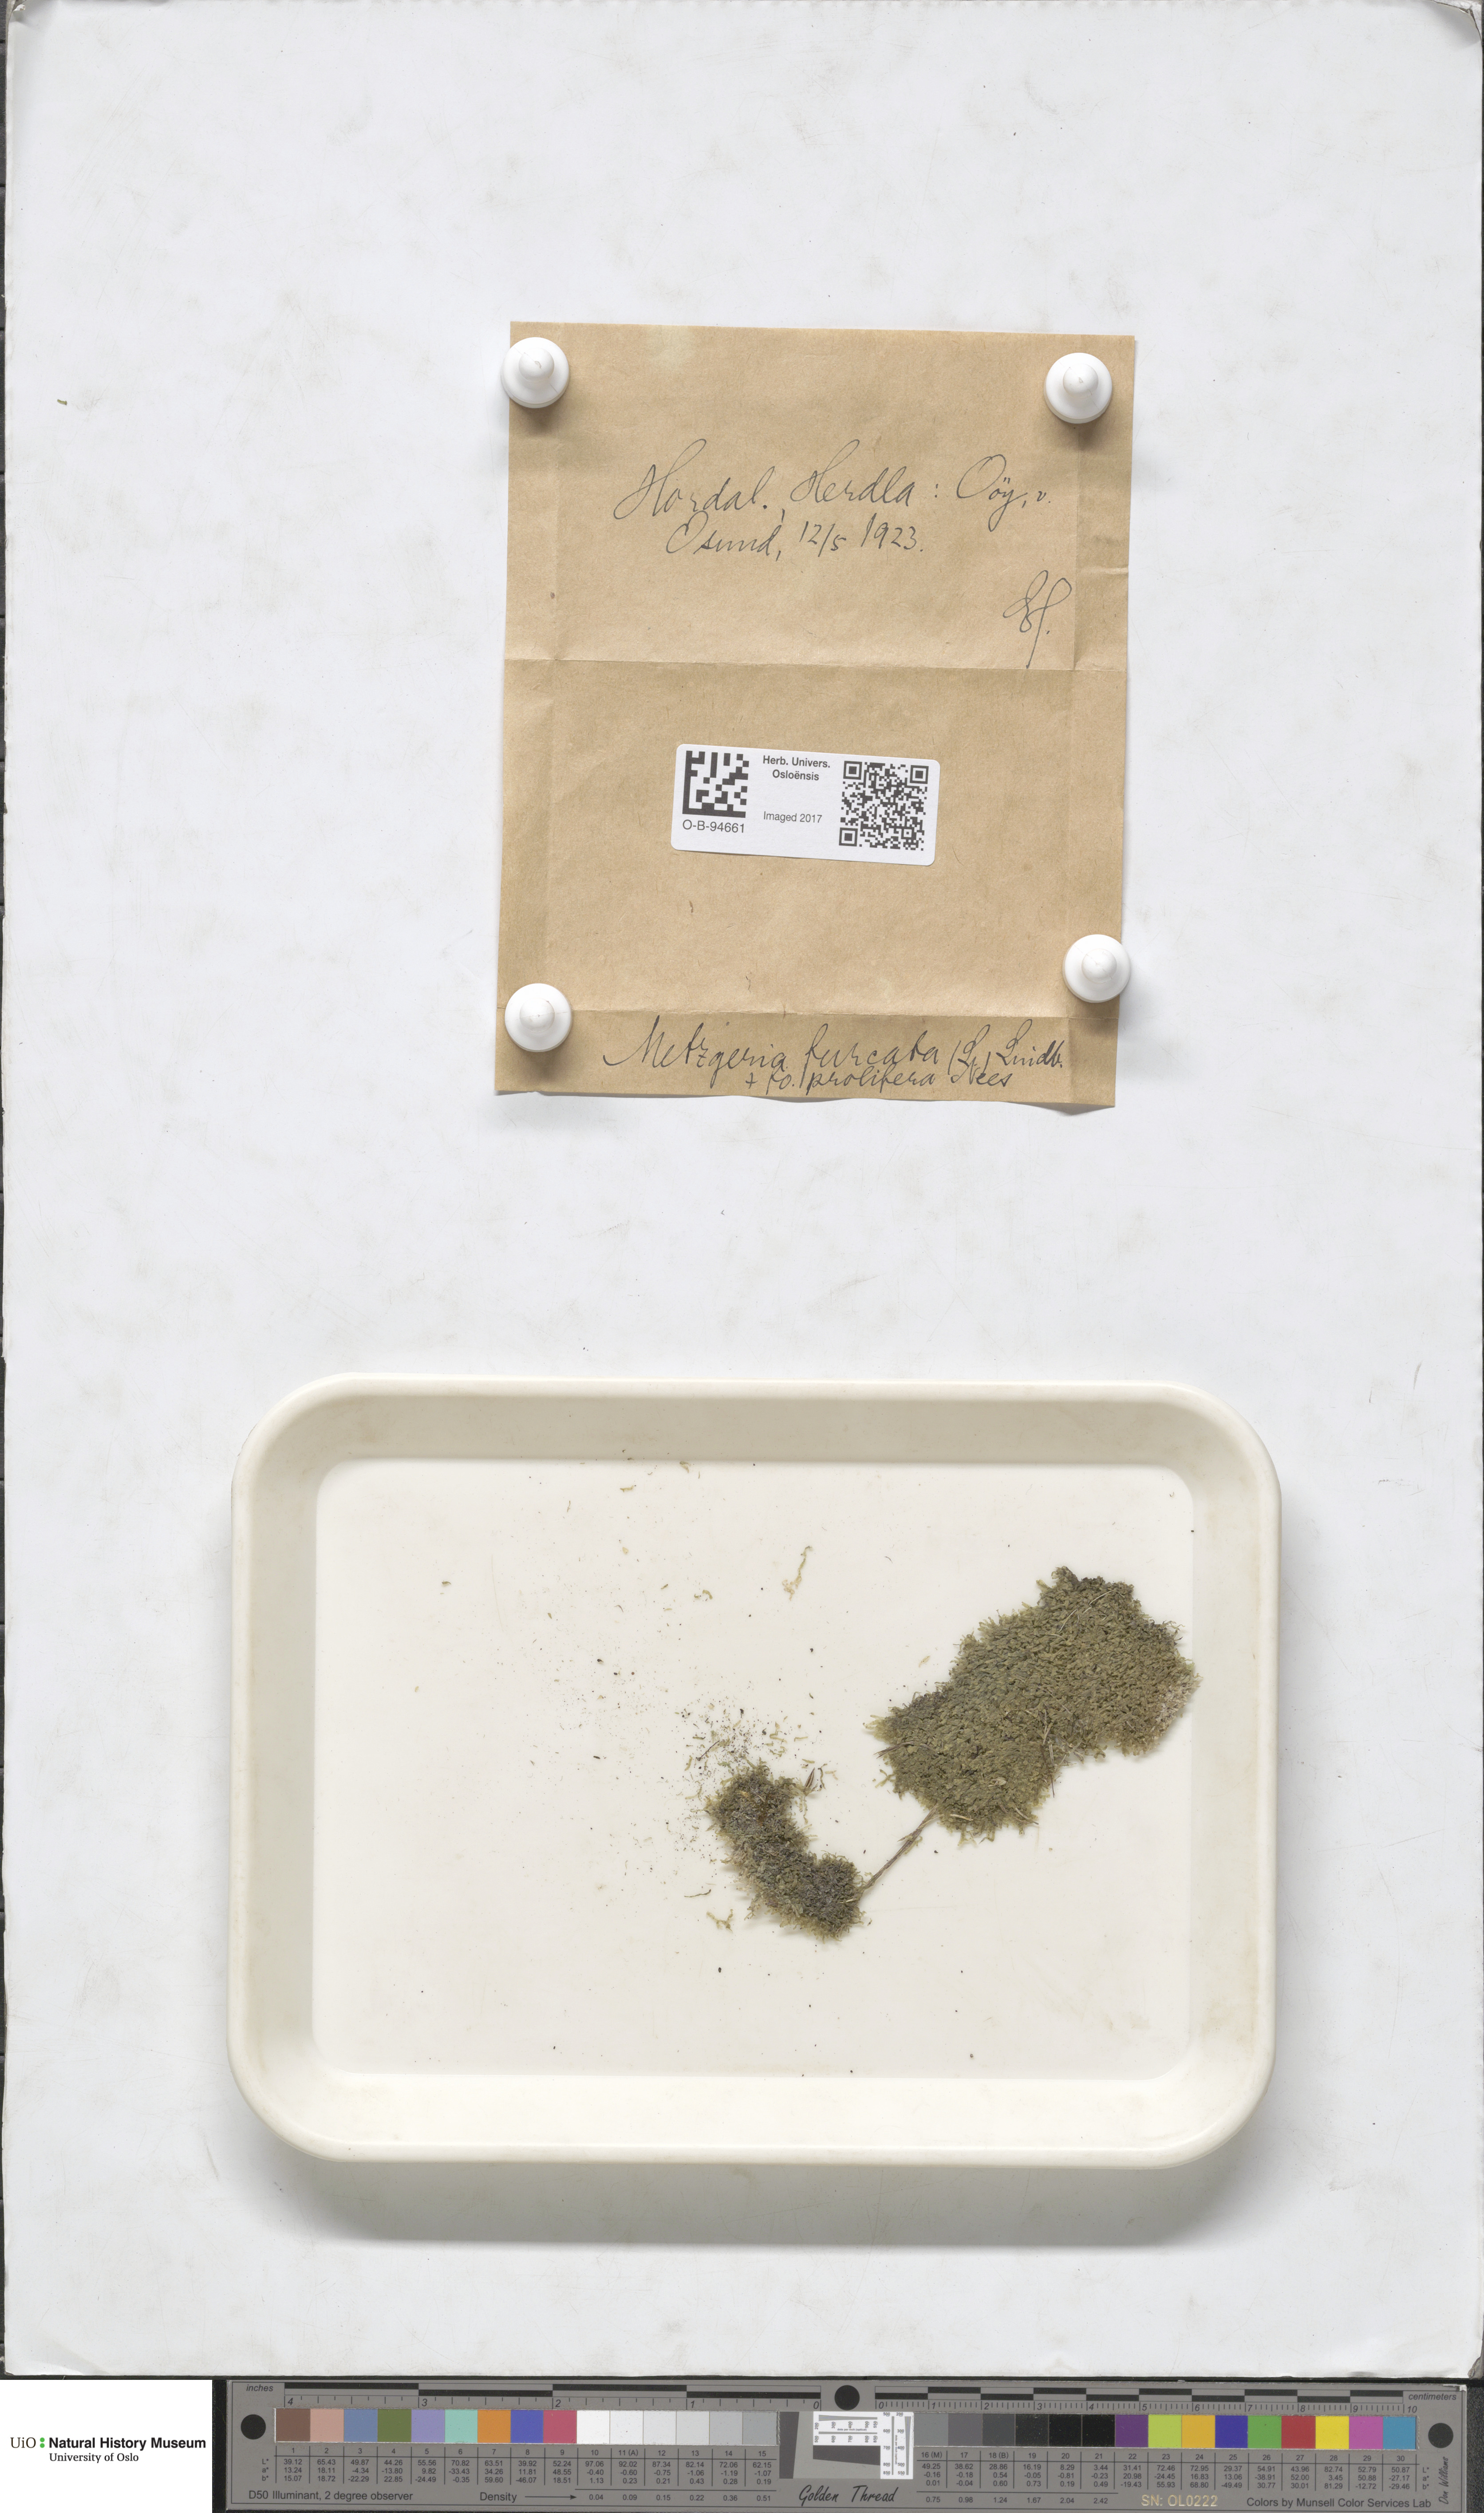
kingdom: Plantae
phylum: Marchantiophyta
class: Jungermanniopsida
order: Metzgeriales
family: Metzgeriaceae
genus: Metzgeria
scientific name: Metzgeria furcata
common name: Forked veilwort
